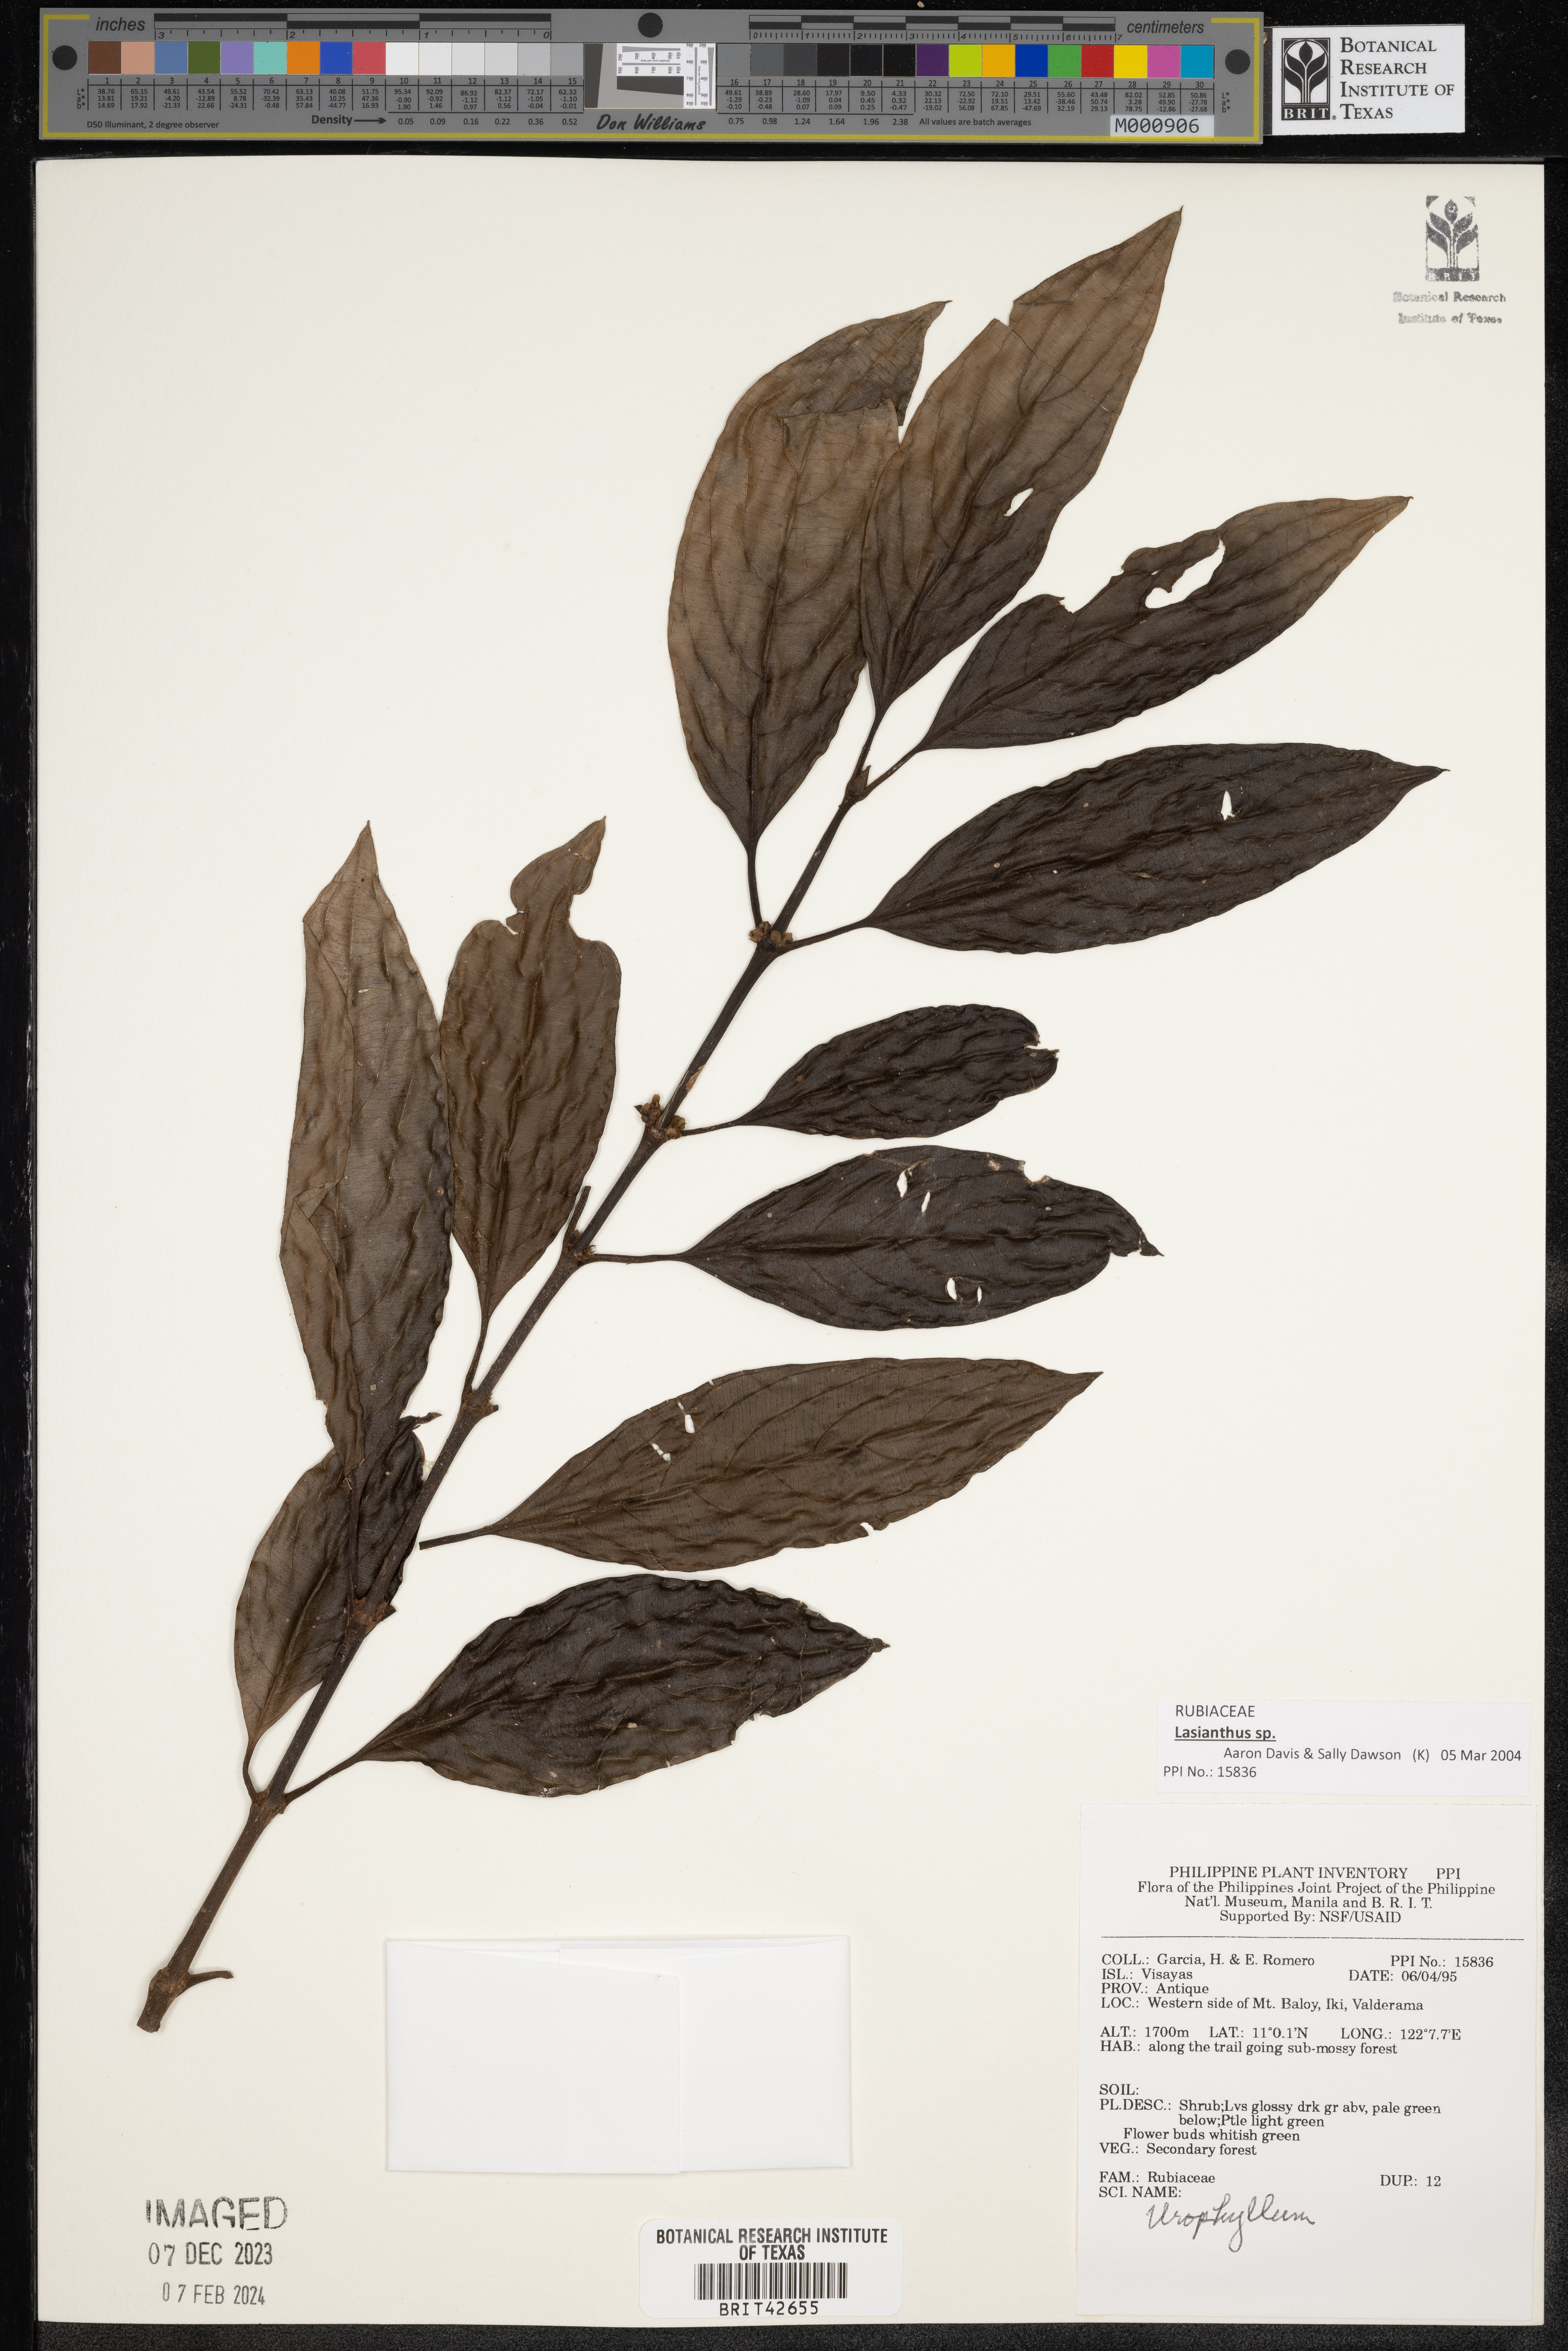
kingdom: Plantae
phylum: Tracheophyta
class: Magnoliopsida
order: Gentianales
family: Rubiaceae
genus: Urophyllum
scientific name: Urophyllum
